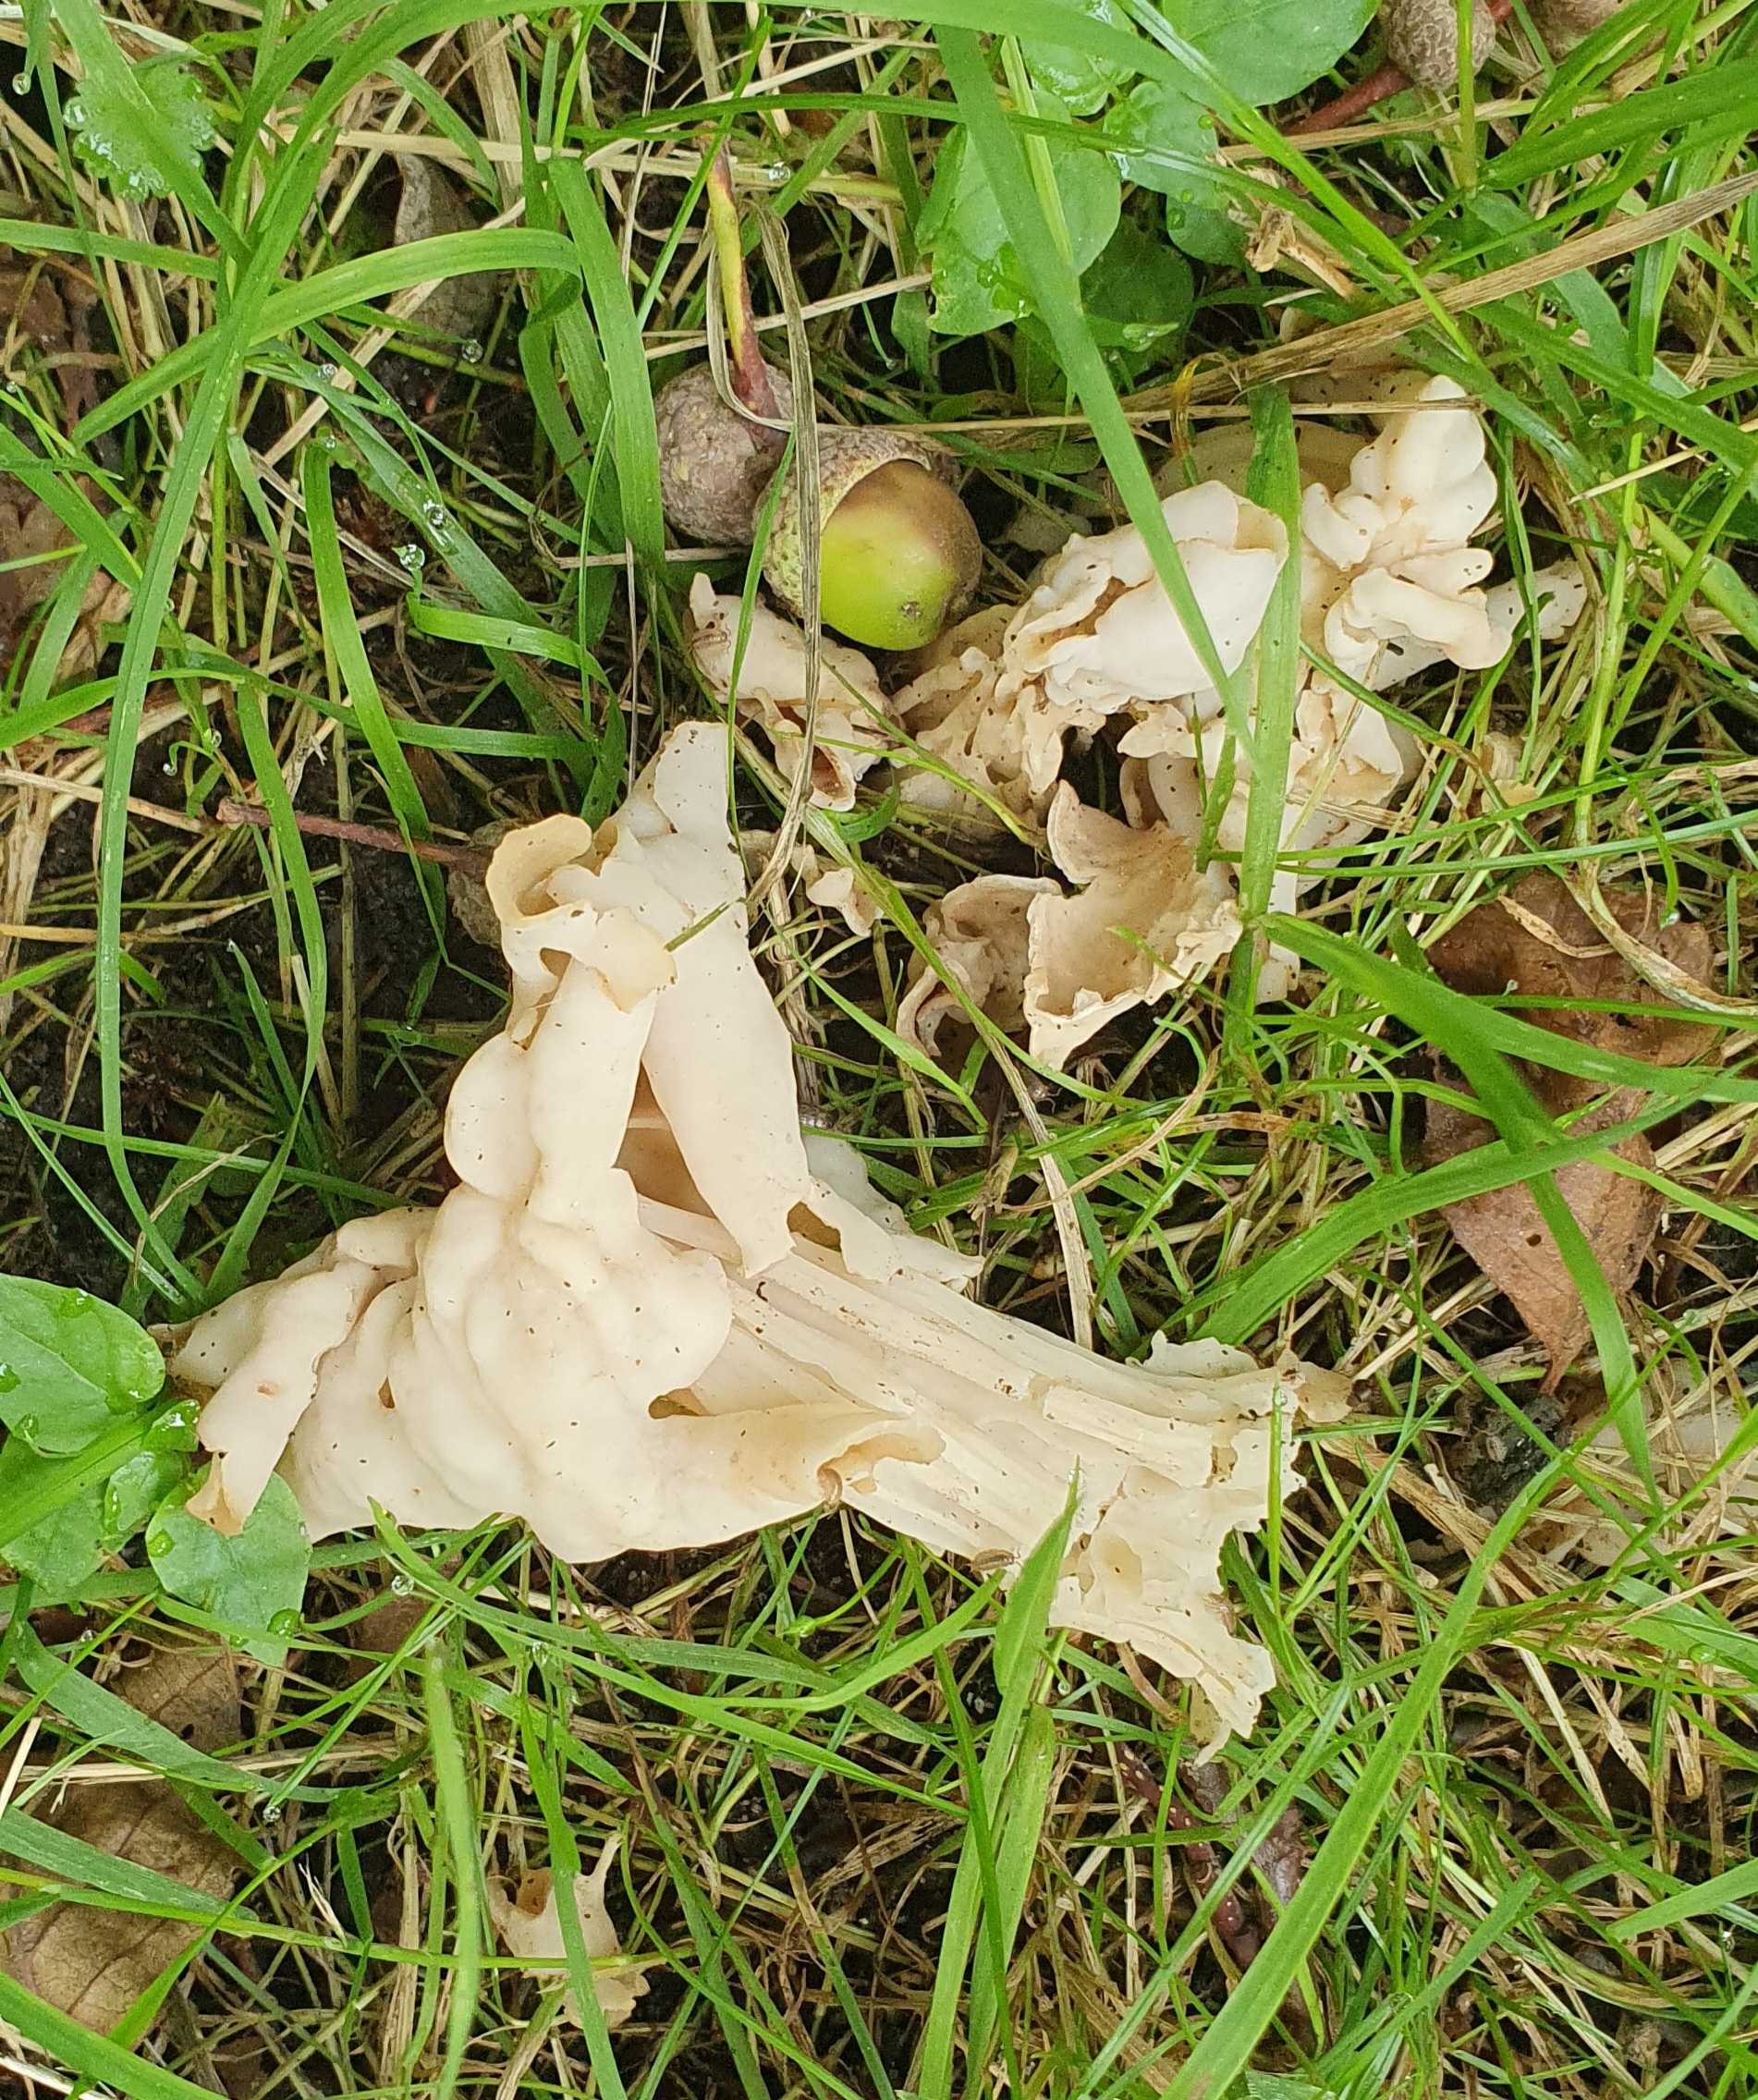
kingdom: Fungi
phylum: Ascomycota
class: Pezizomycetes
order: Pezizales
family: Helvellaceae
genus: Helvella
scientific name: Helvella crispa
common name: kruset foldhat
